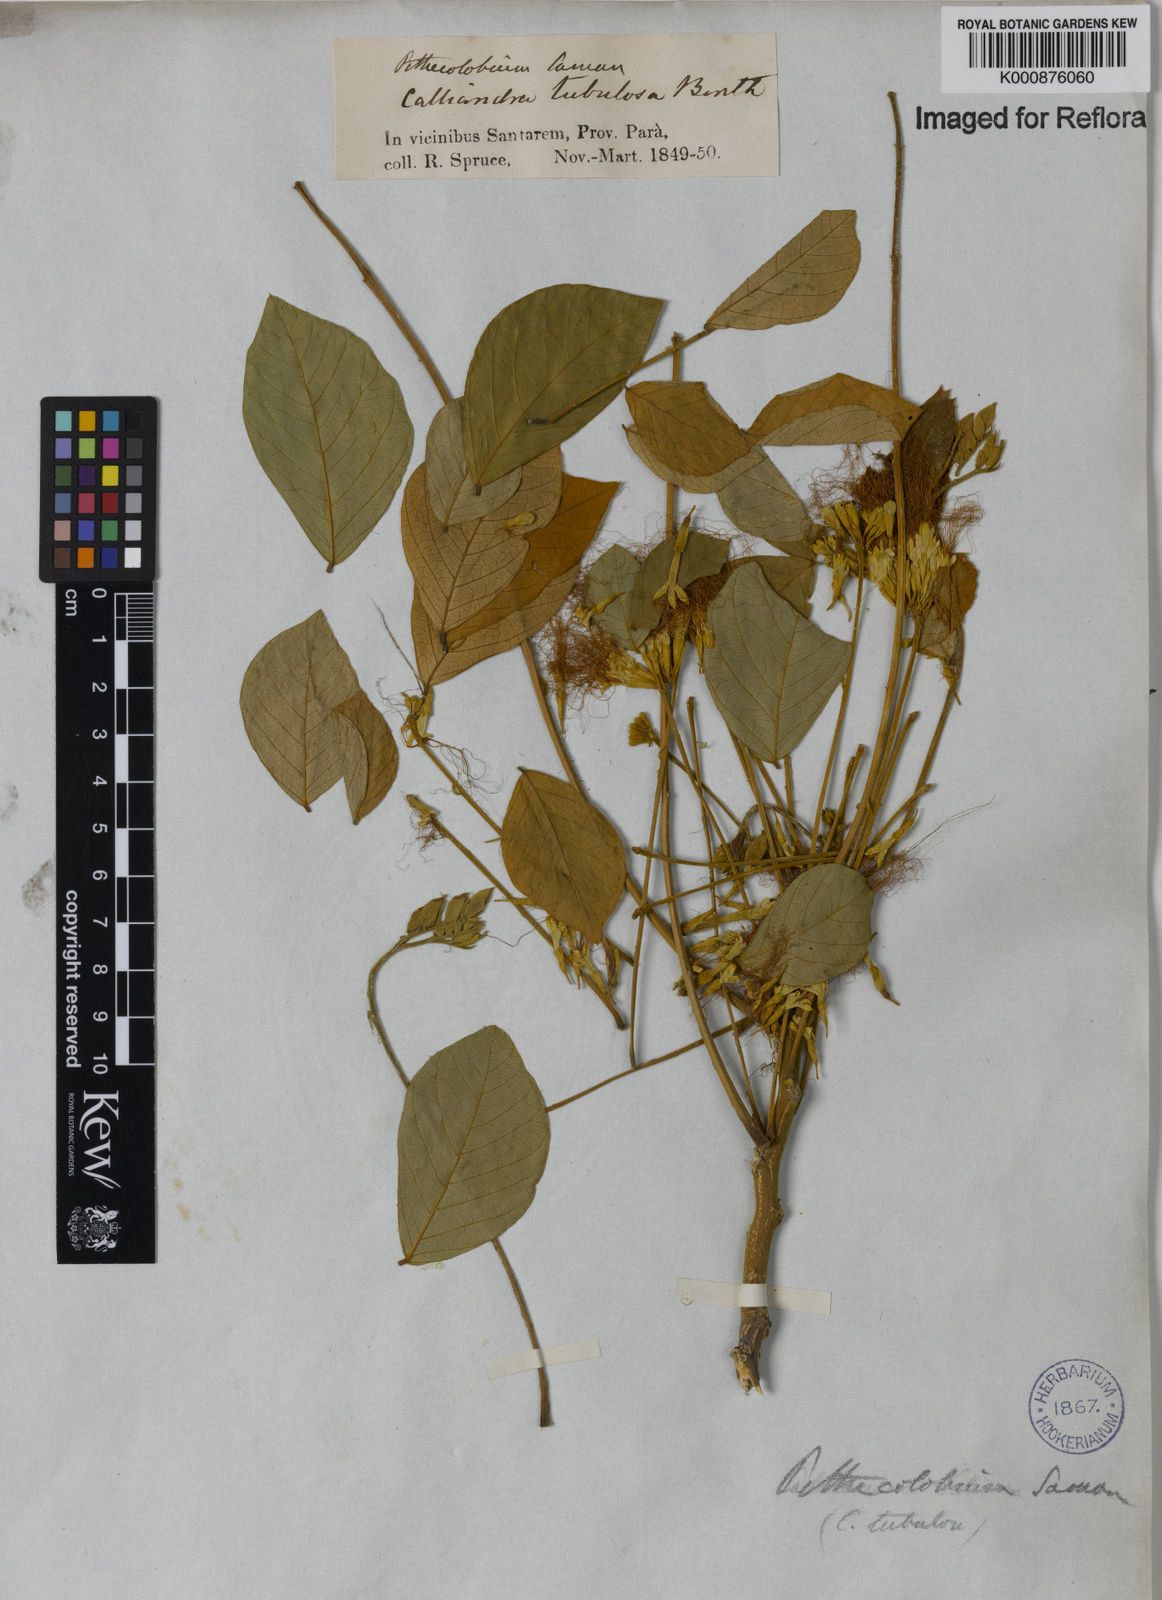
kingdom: Plantae
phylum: Tracheophyta
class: Magnoliopsida
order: Fabales
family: Fabaceae
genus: Samanea
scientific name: Samanea tubulosa
